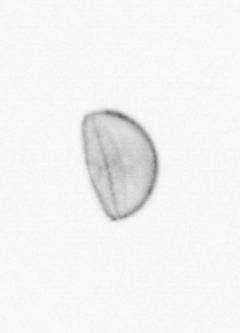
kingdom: Chromista
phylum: Ochrophyta
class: Bacillariophyceae
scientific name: Bacillariophyceae
